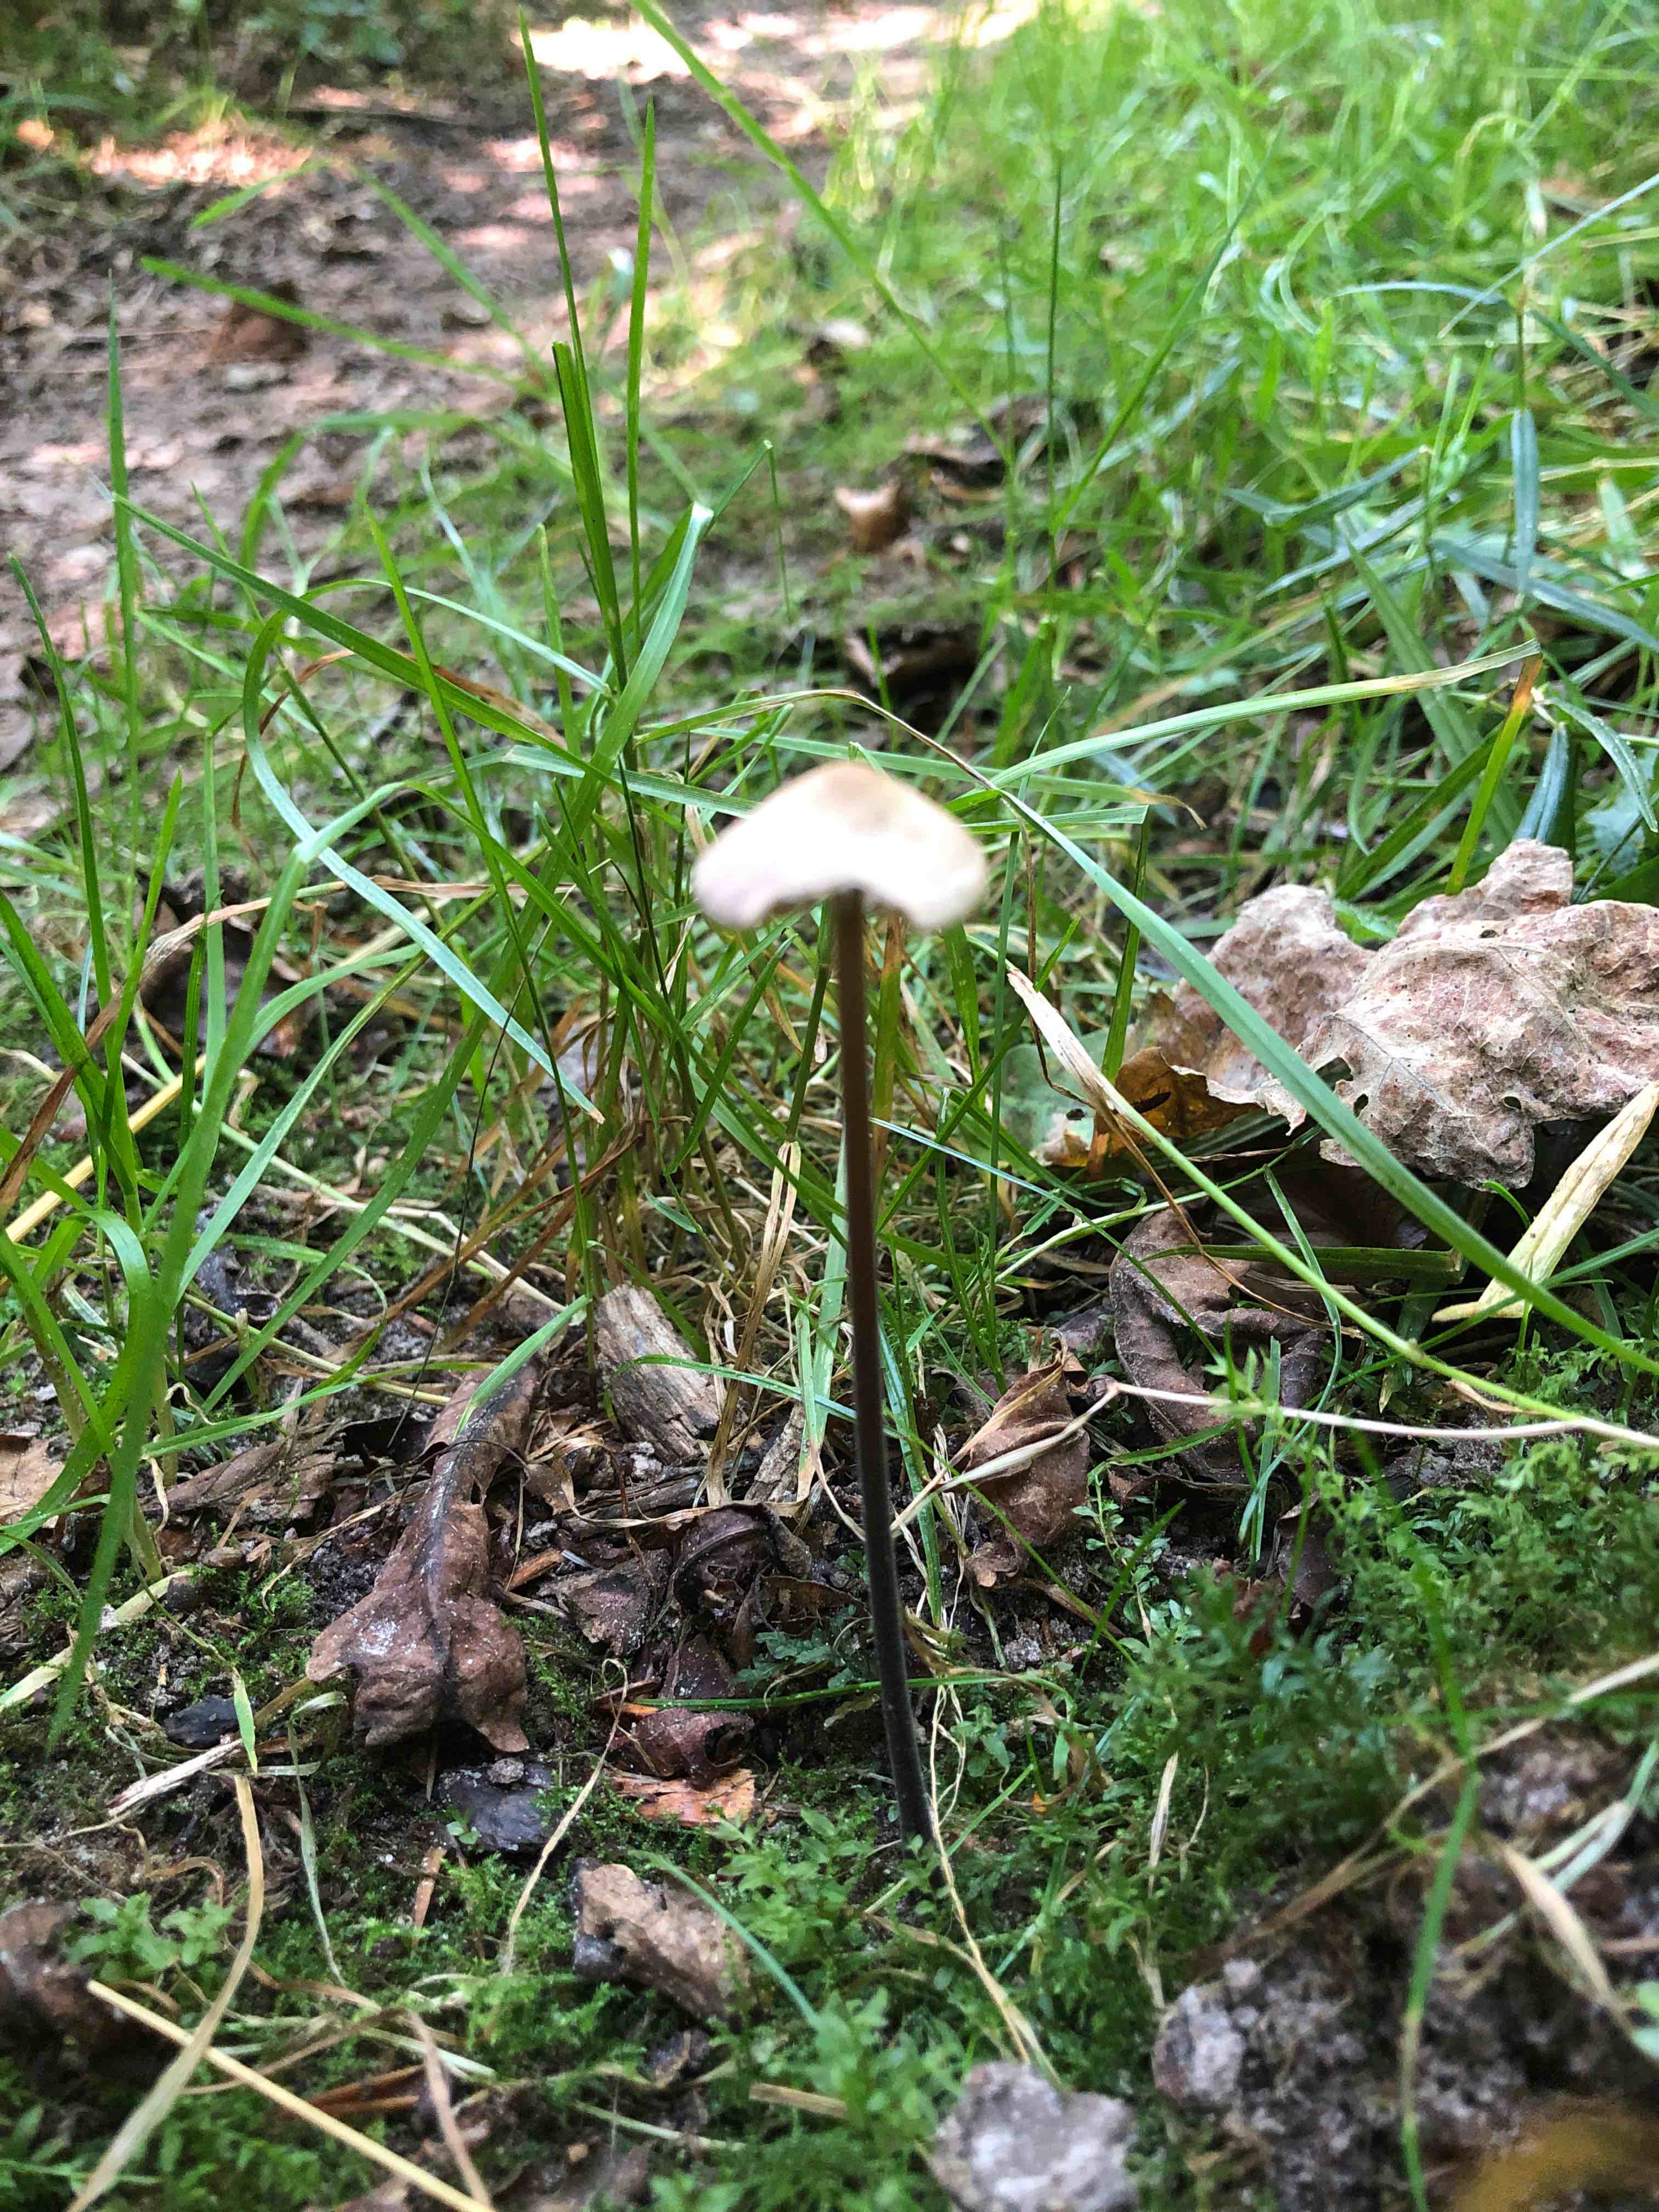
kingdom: Fungi
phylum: Basidiomycota
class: Agaricomycetes
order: Agaricales
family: Omphalotaceae
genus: Mycetinis
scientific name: Mycetinis alliaceus
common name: stor løghat
